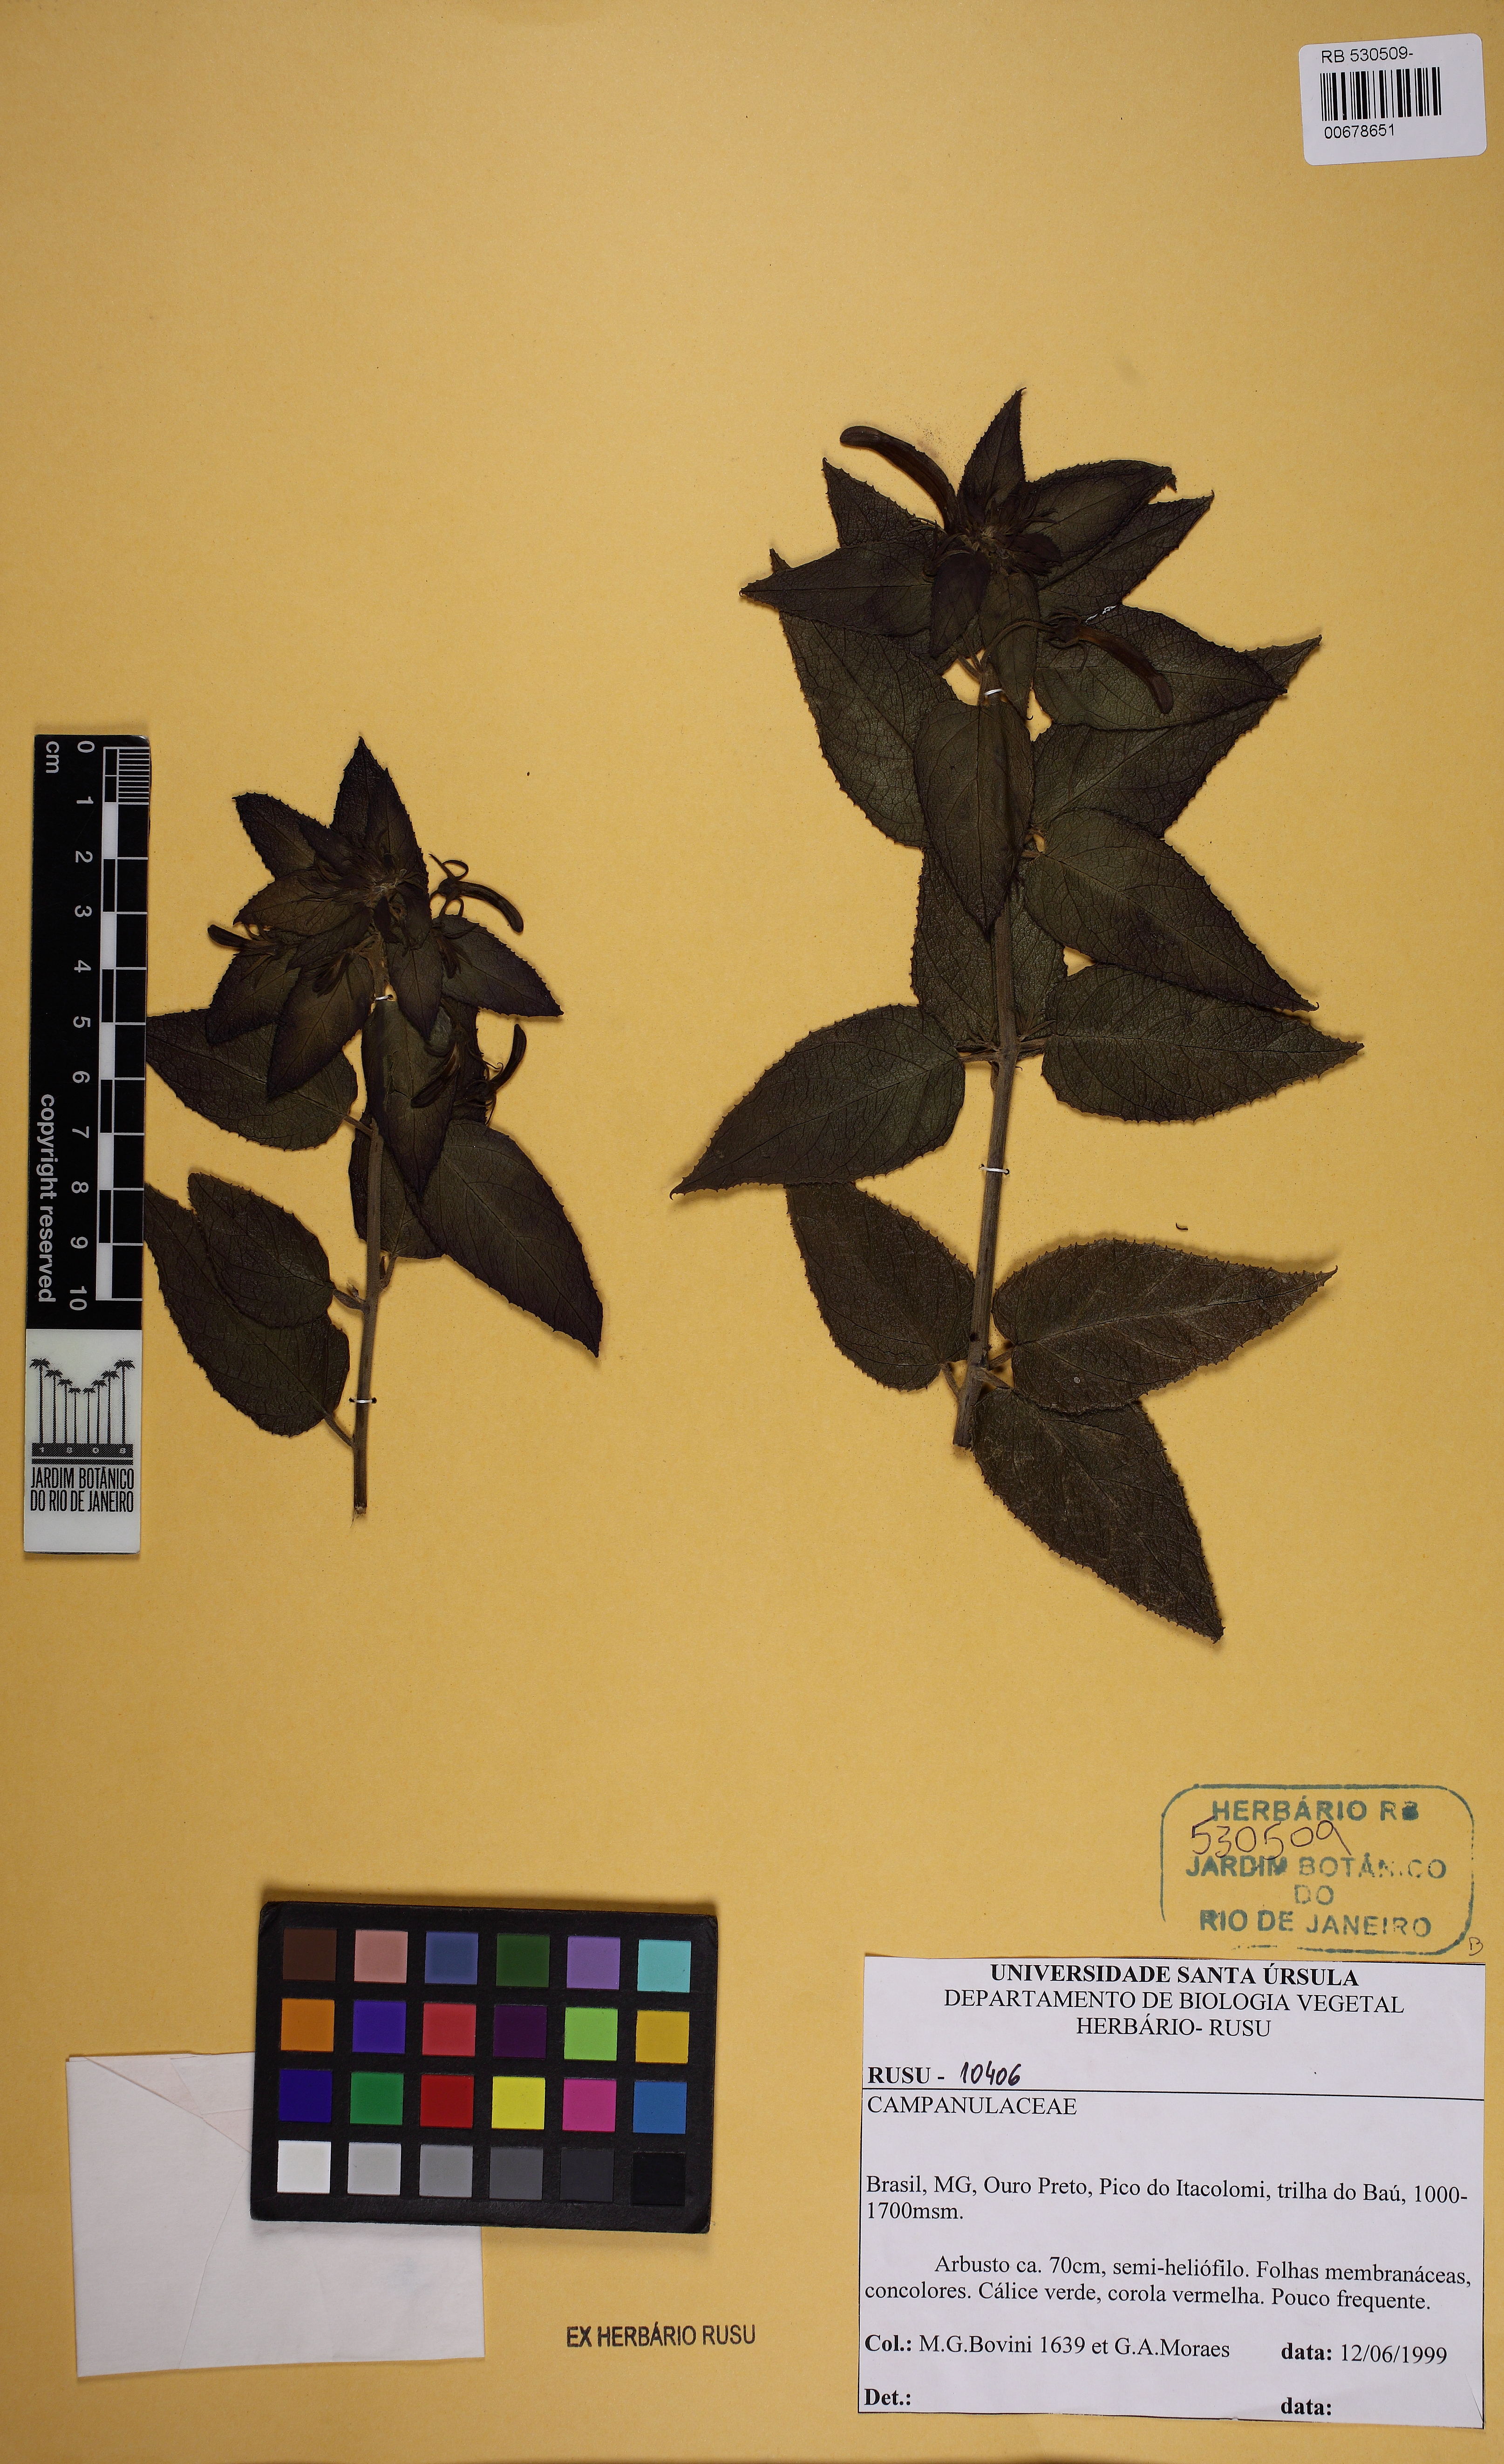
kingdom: Plantae
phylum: Tracheophyta
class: Magnoliopsida
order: Asterales
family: Campanulaceae
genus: Siphocampylus
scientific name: Siphocampylus nitidus
